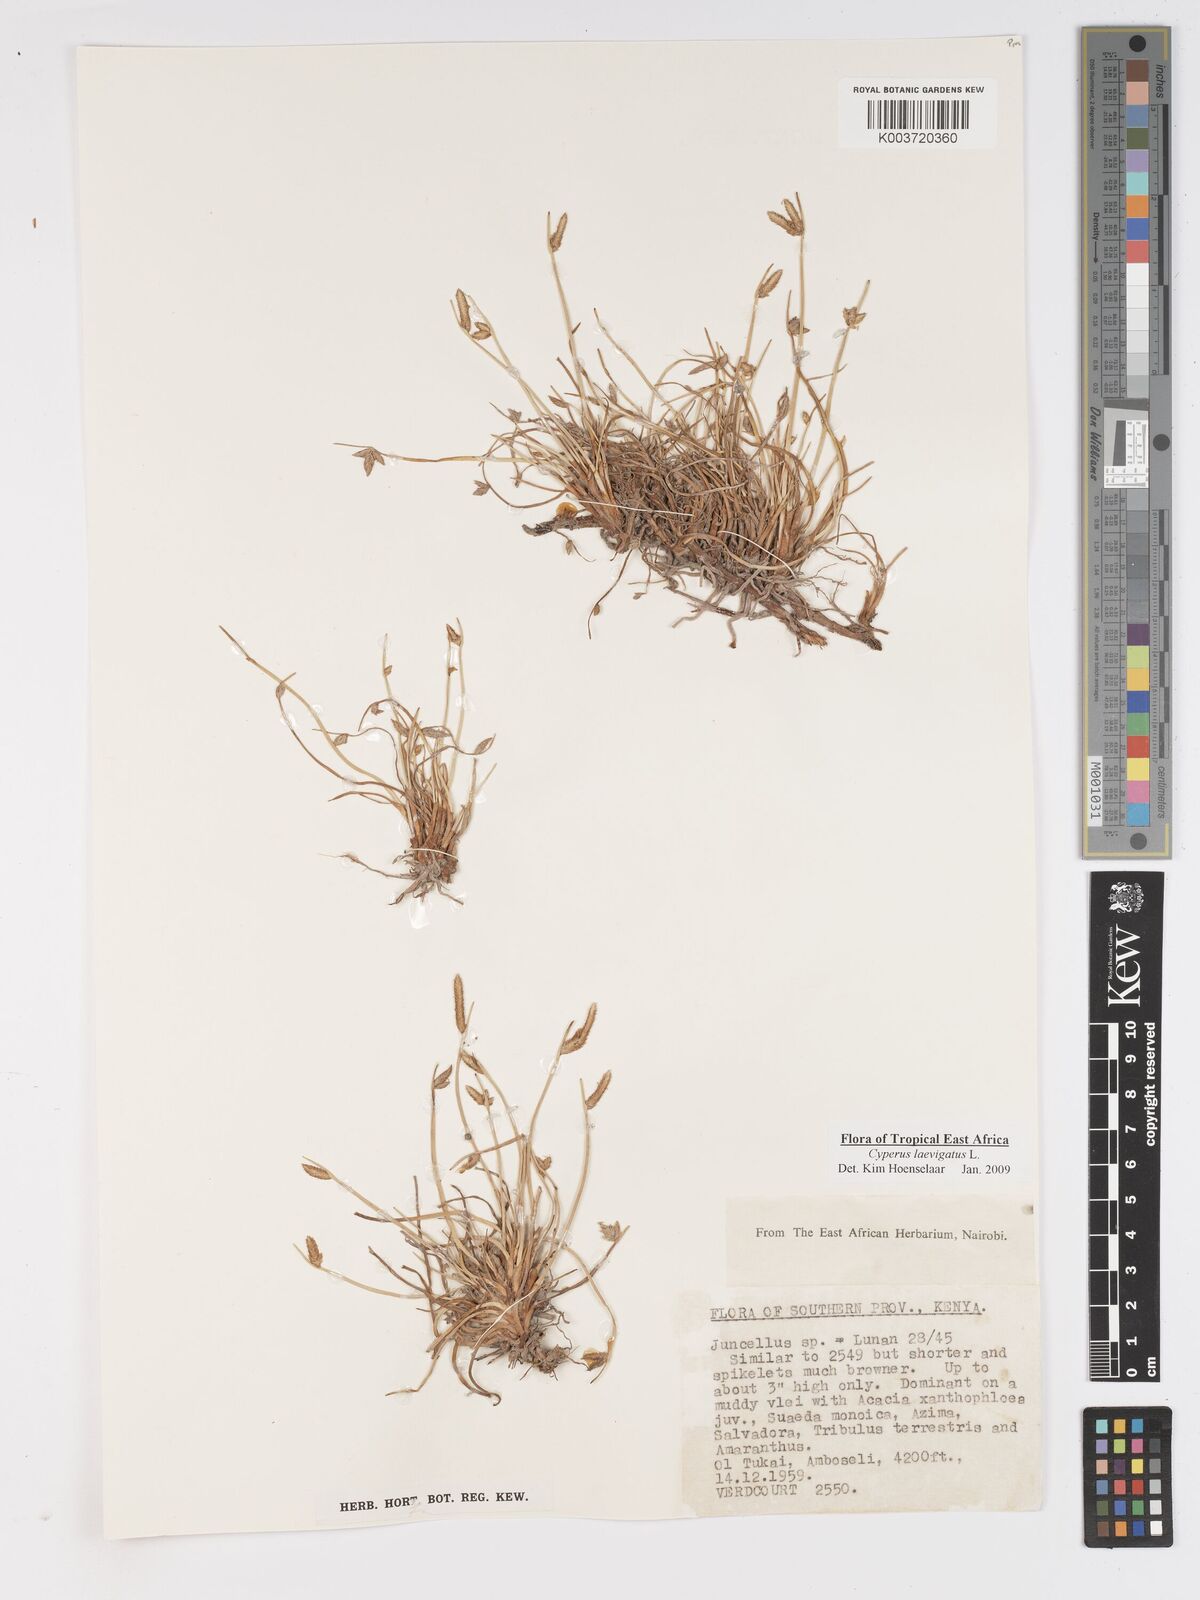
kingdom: Plantae
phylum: Tracheophyta
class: Liliopsida
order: Poales
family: Cyperaceae
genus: Cyperus
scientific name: Cyperus laevigatus
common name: Smooth flat sedge
